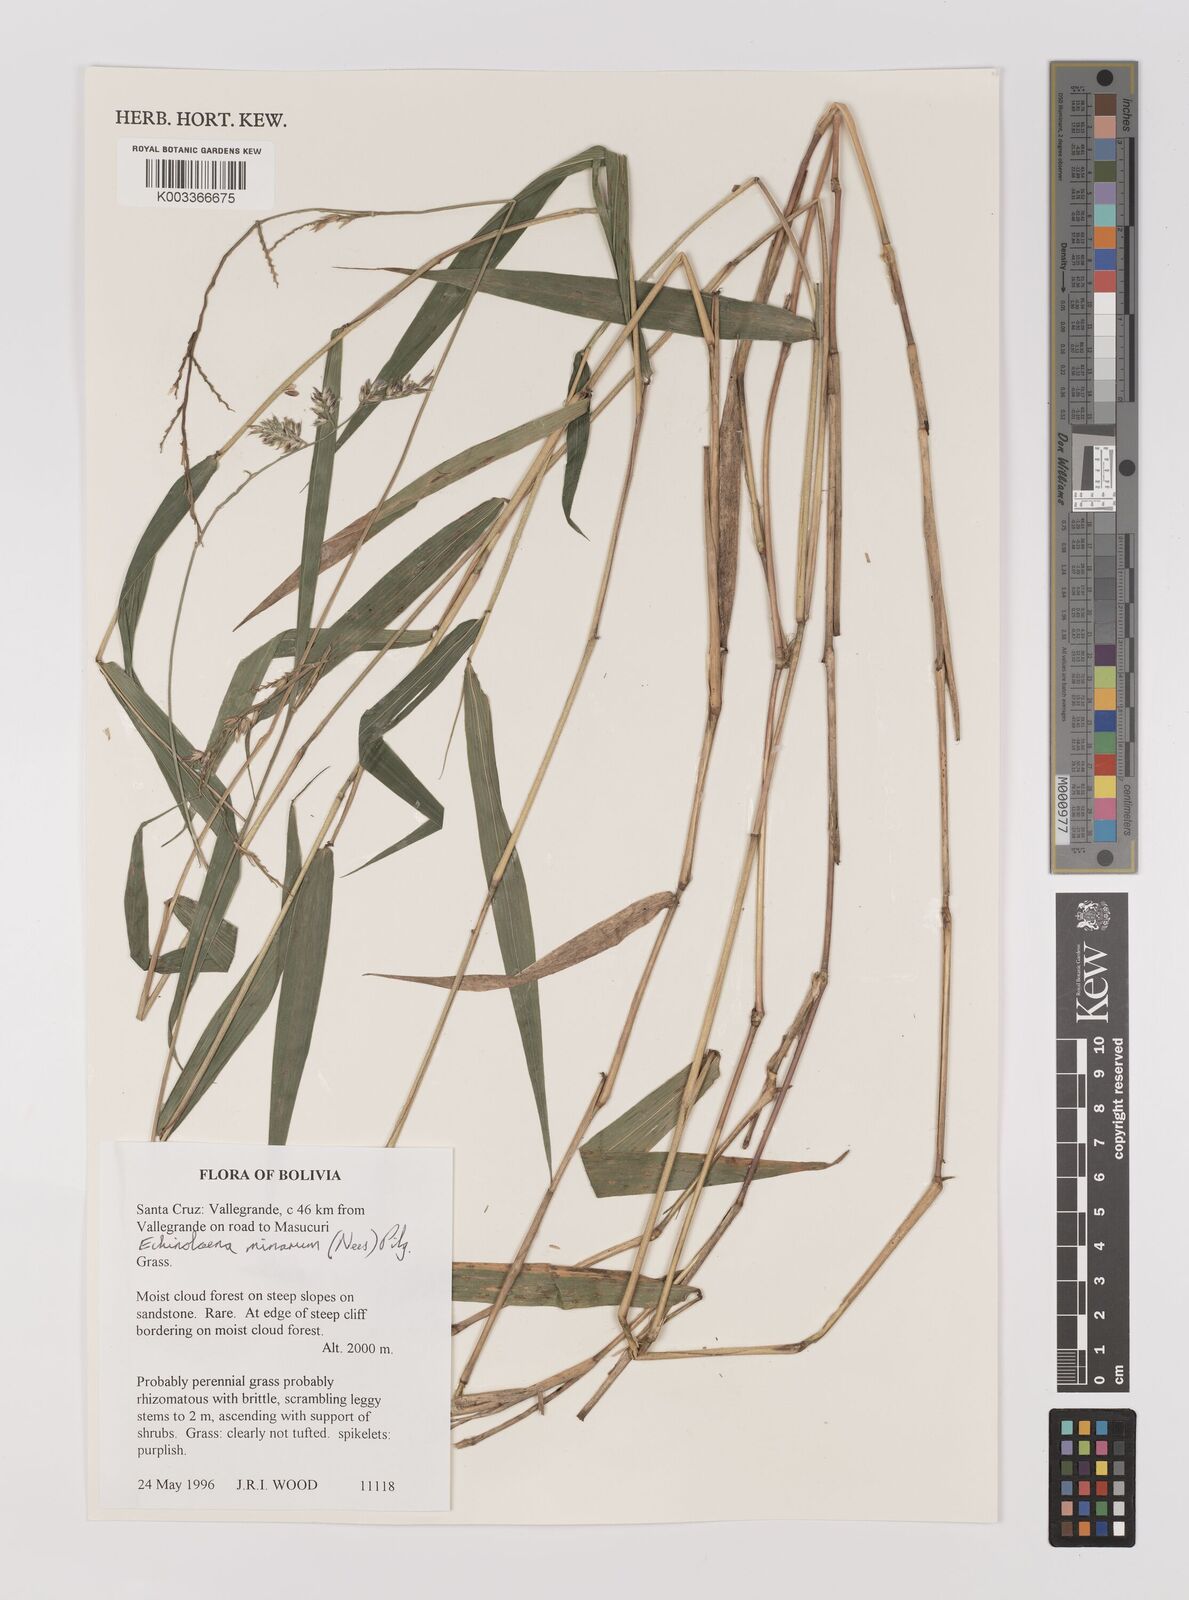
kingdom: Plantae
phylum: Tracheophyta
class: Liliopsida
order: Poales
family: Poaceae
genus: Oedochloa
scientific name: Oedochloa minarum
